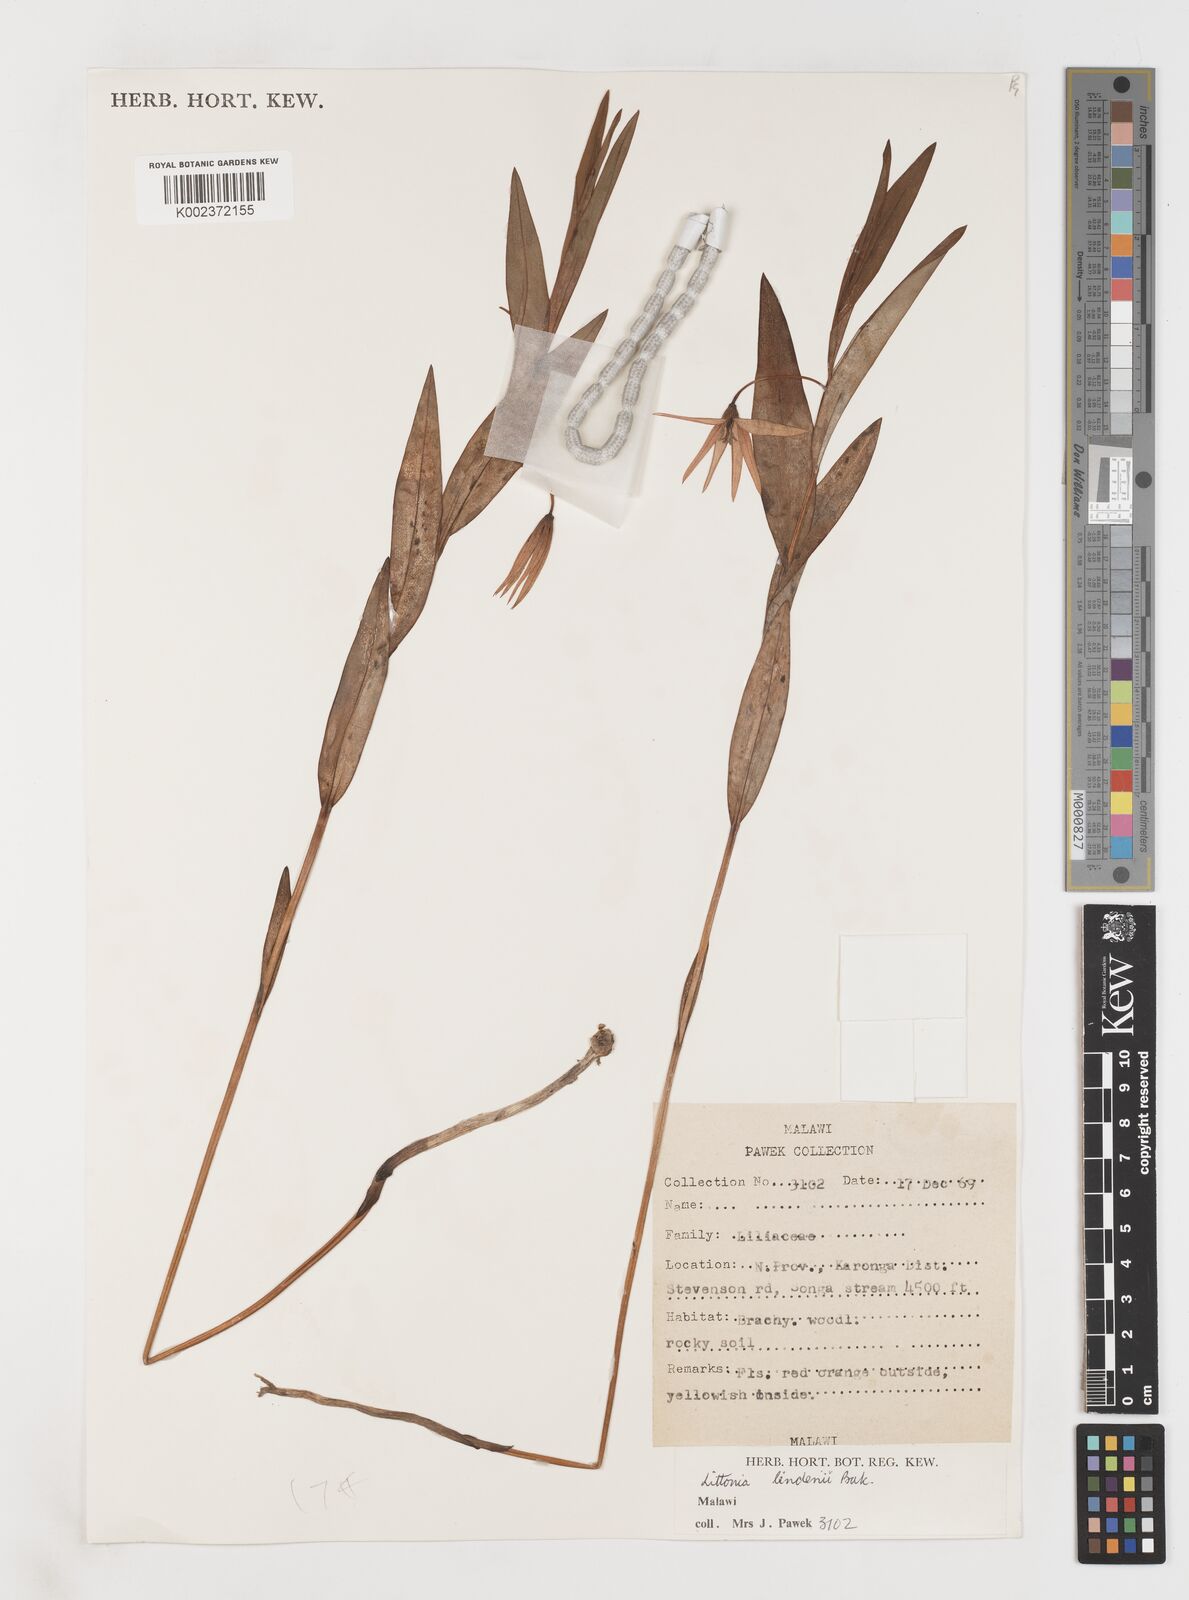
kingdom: Plantae
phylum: Tracheophyta
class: Liliopsida
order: Liliales
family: Colchicaceae
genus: Gloriosa
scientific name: Gloriosa lindenii
